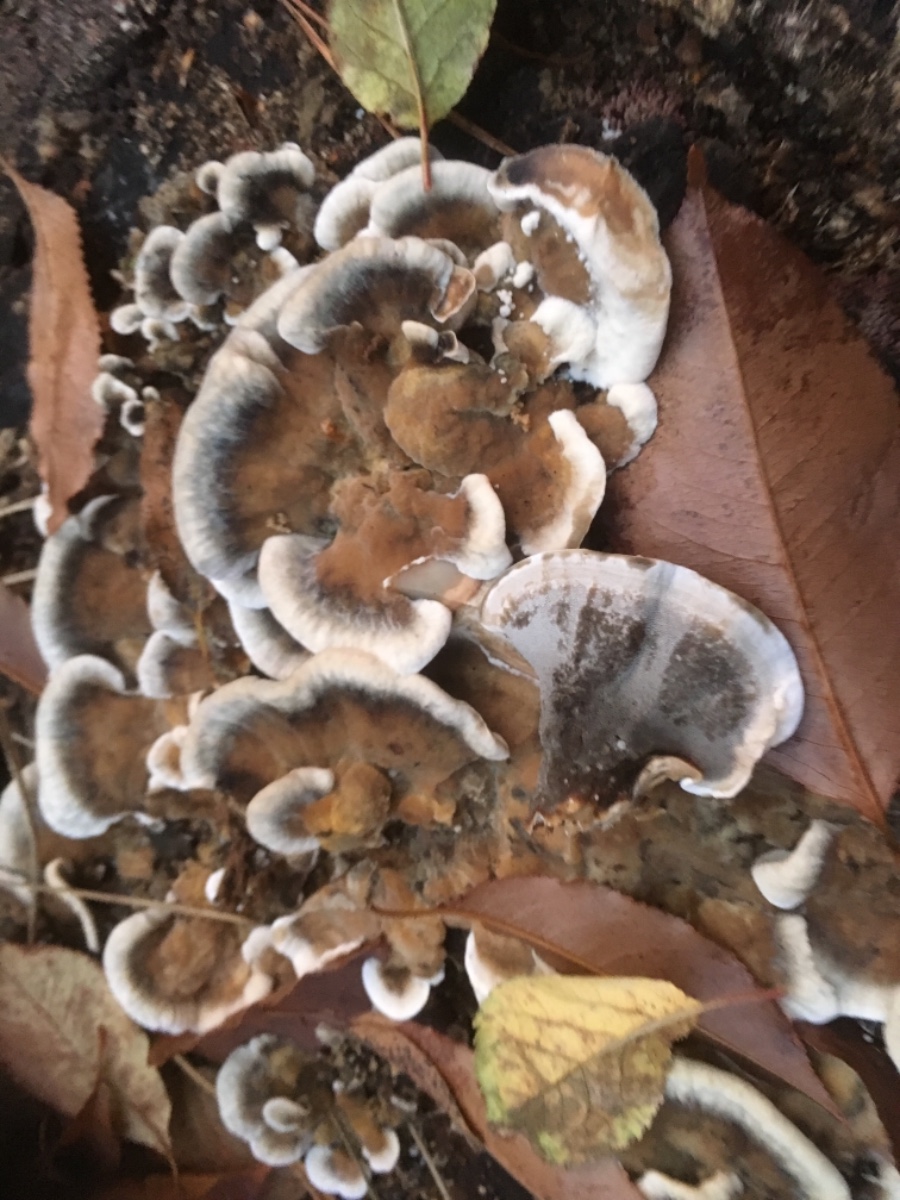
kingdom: Fungi
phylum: Basidiomycota
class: Agaricomycetes
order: Polyporales
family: Phanerochaetaceae
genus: Bjerkandera
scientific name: Bjerkandera adusta
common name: sveden sodporesvamp
